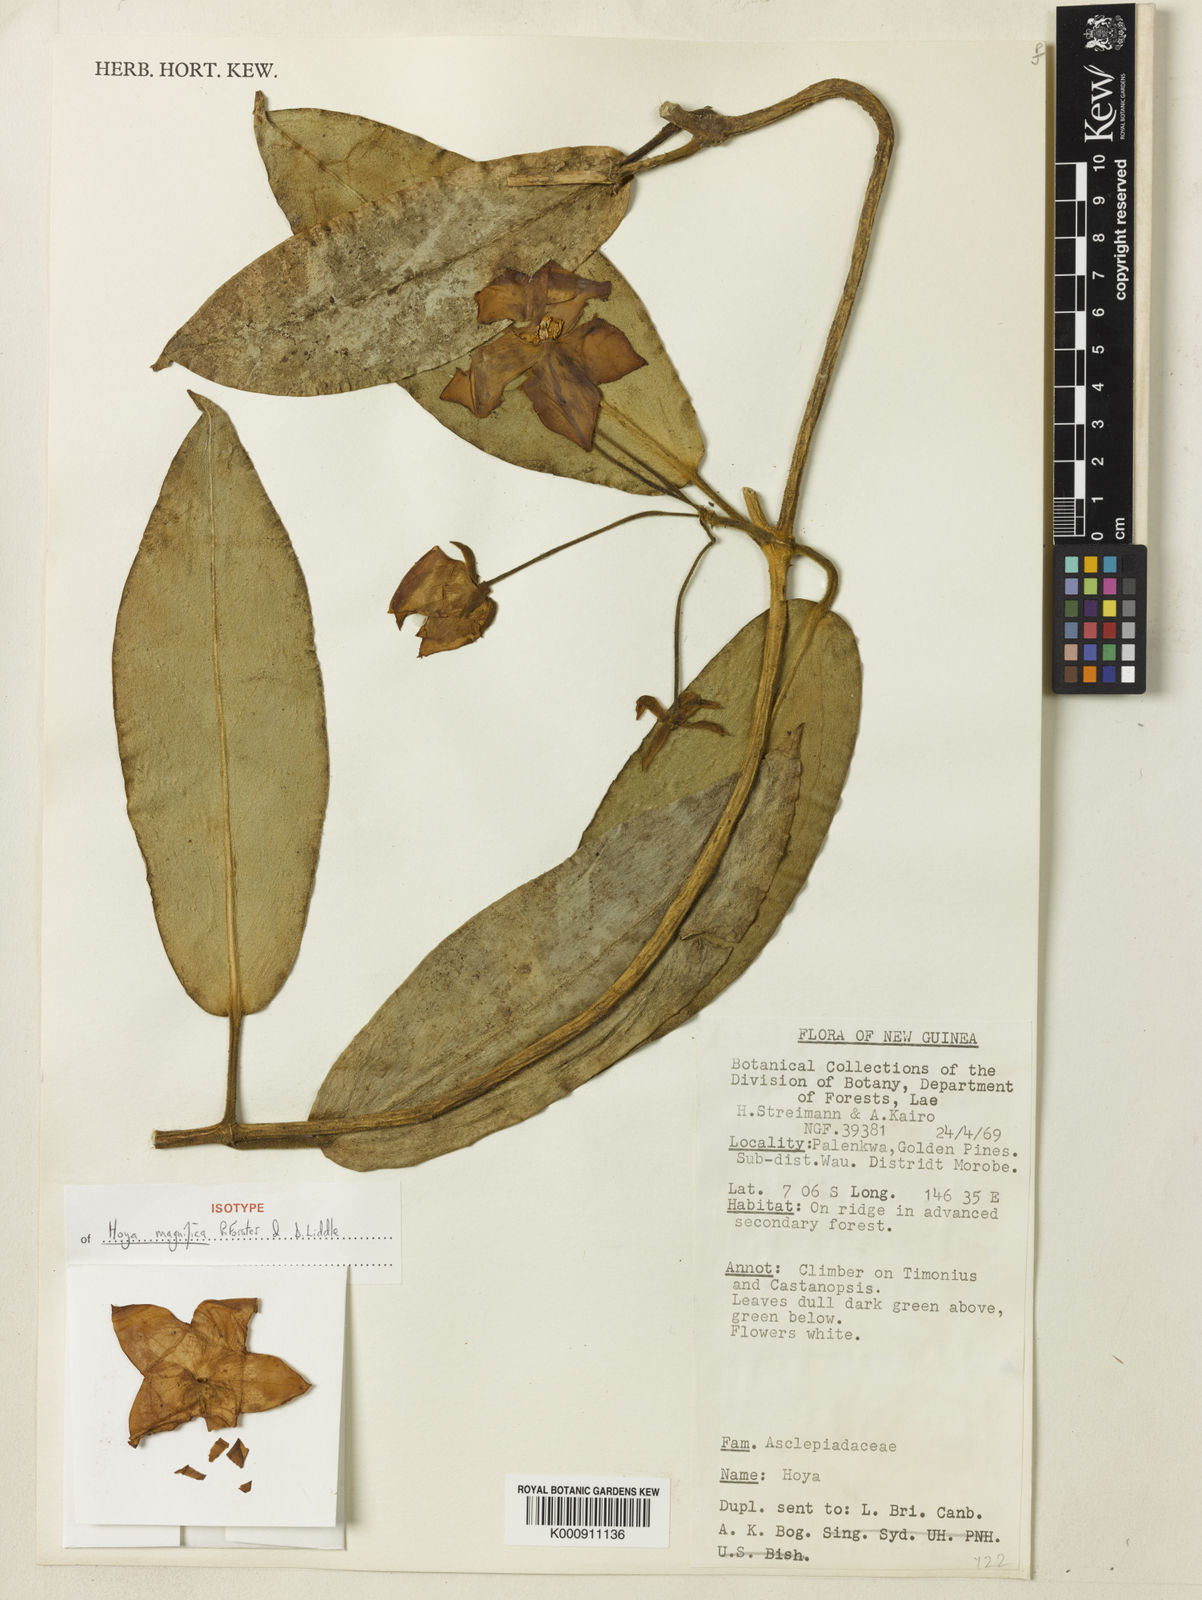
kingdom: Plantae
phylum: Tracheophyta
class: Magnoliopsida
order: Gentianales
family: Apocynaceae
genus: Hoya
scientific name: Hoya magnifica
